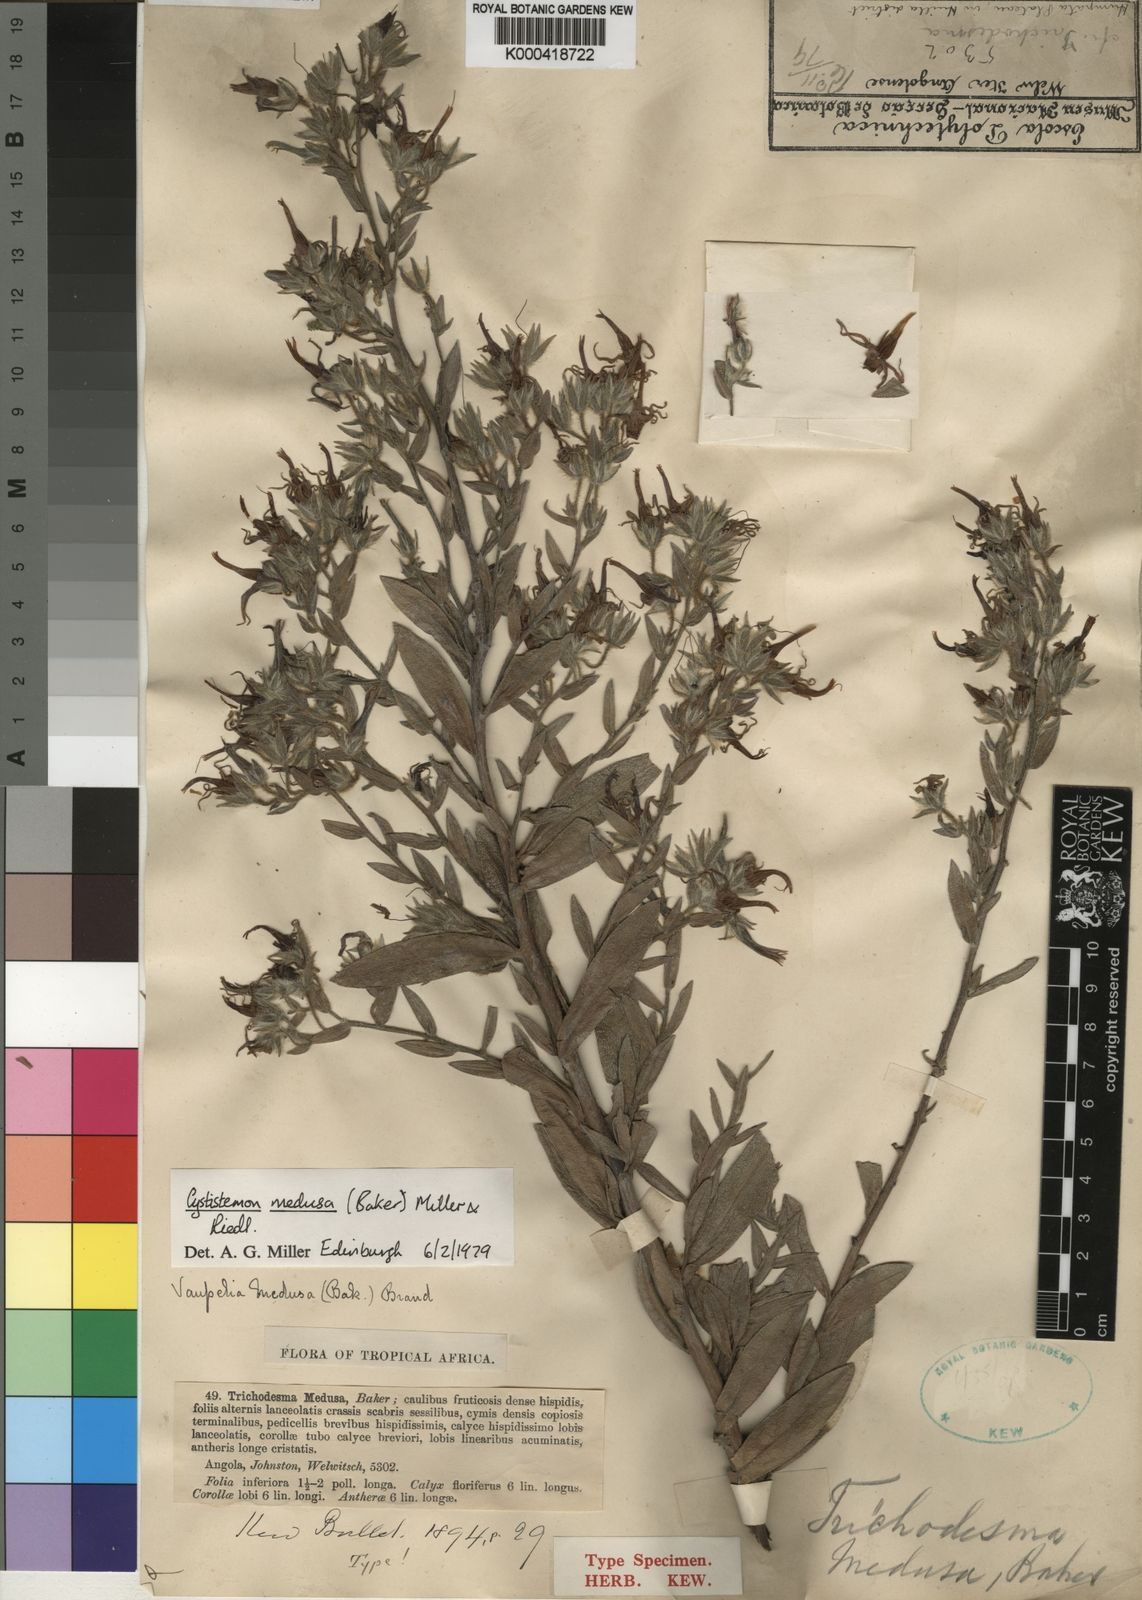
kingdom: Plantae
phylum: Tracheophyta
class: Magnoliopsida
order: Boraginales
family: Boraginaceae
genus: Cystostemon
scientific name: Cystostemon medusa
